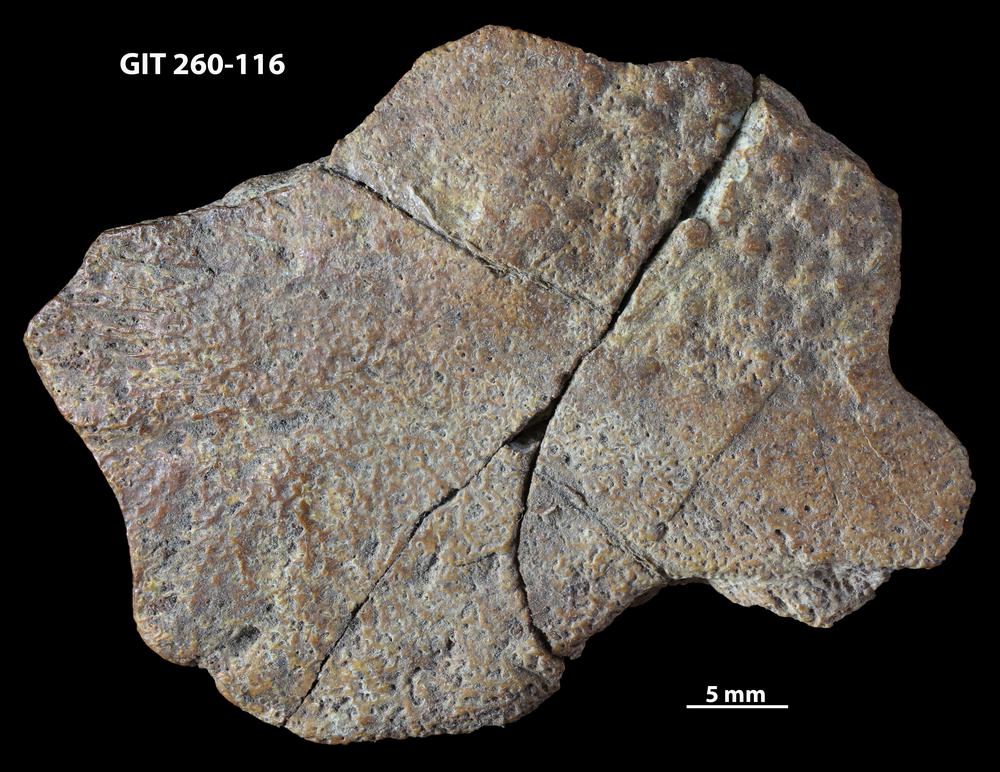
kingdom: Animalia
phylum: Chordata
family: Homostiidae
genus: Homostius
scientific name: Homostius
